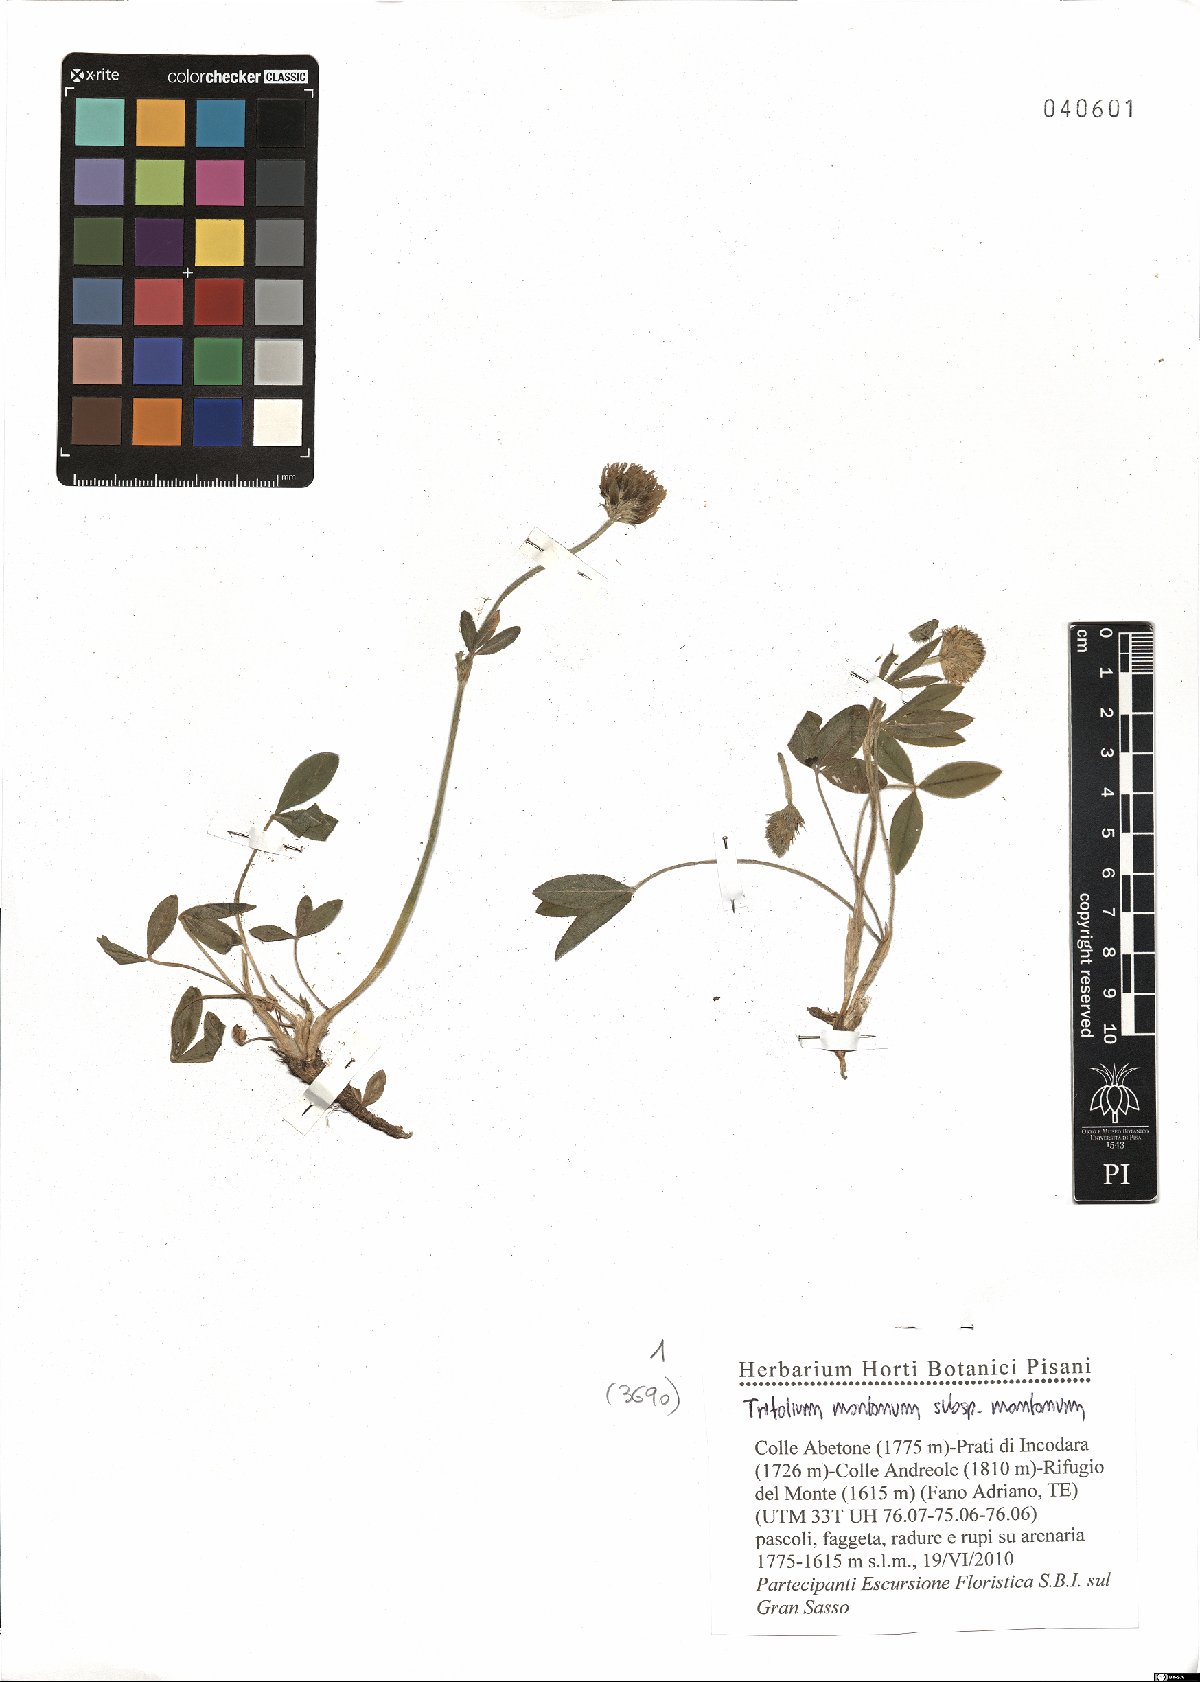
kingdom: Plantae
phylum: Tracheophyta
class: Magnoliopsida
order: Fabales
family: Fabaceae
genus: Trifolium
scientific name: Trifolium montanum
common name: Mountain clover
